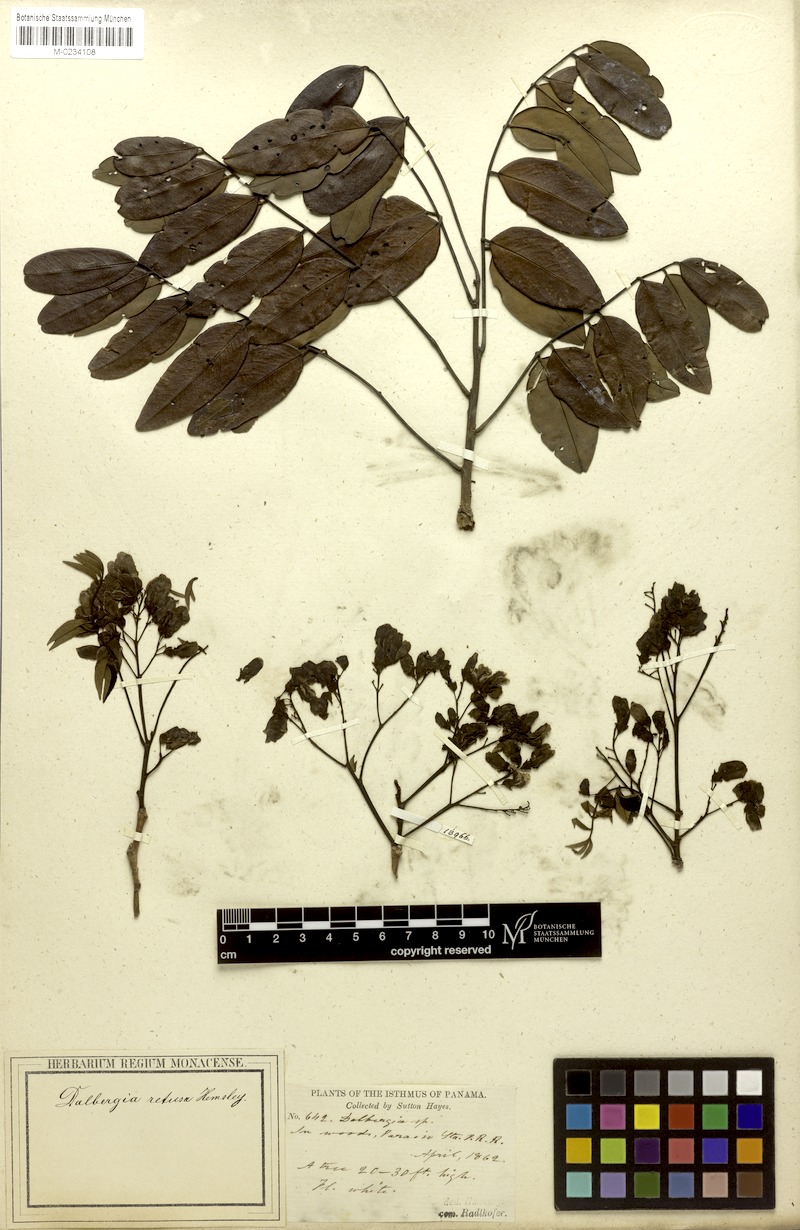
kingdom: Plantae
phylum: Tracheophyta
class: Magnoliopsida
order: Fabales
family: Fabaceae
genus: Dalbergia
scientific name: Dalbergia retusa
